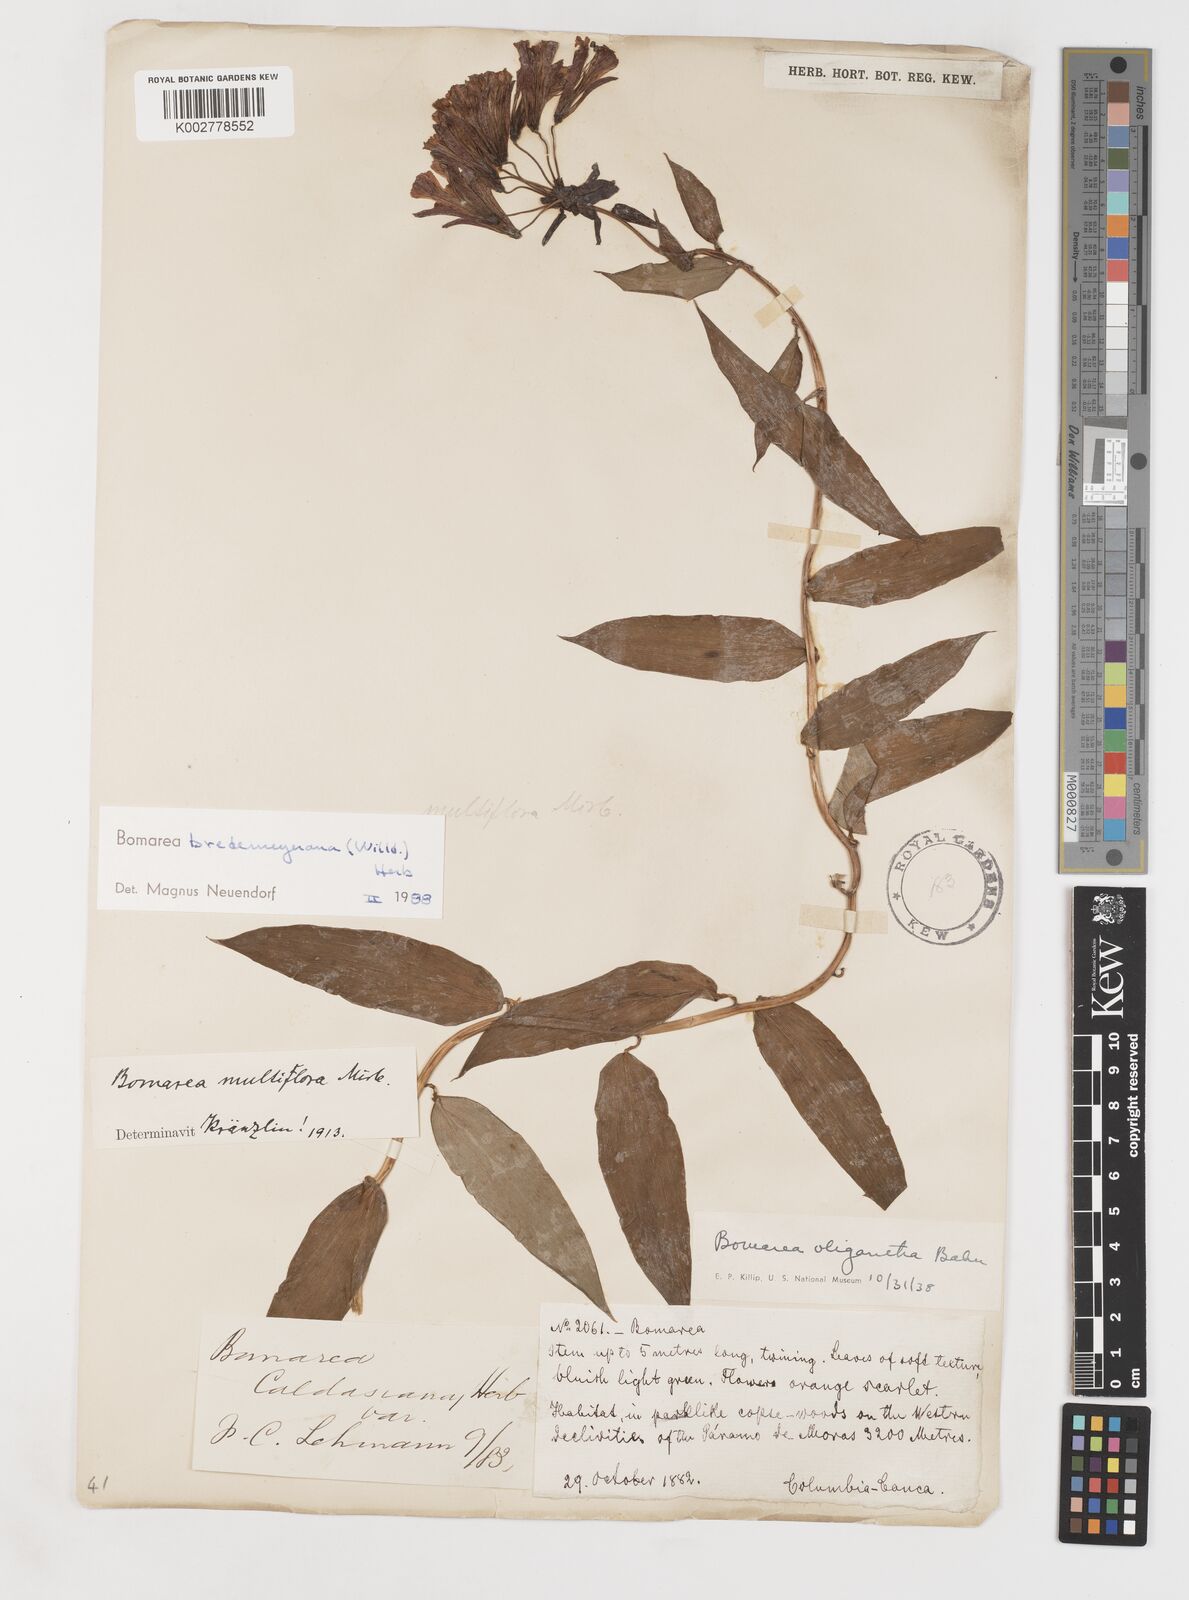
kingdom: Plantae
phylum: Tracheophyta
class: Liliopsida
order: Liliales
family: Alstroemeriaceae
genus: Bomarea
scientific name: Bomarea multiflora
